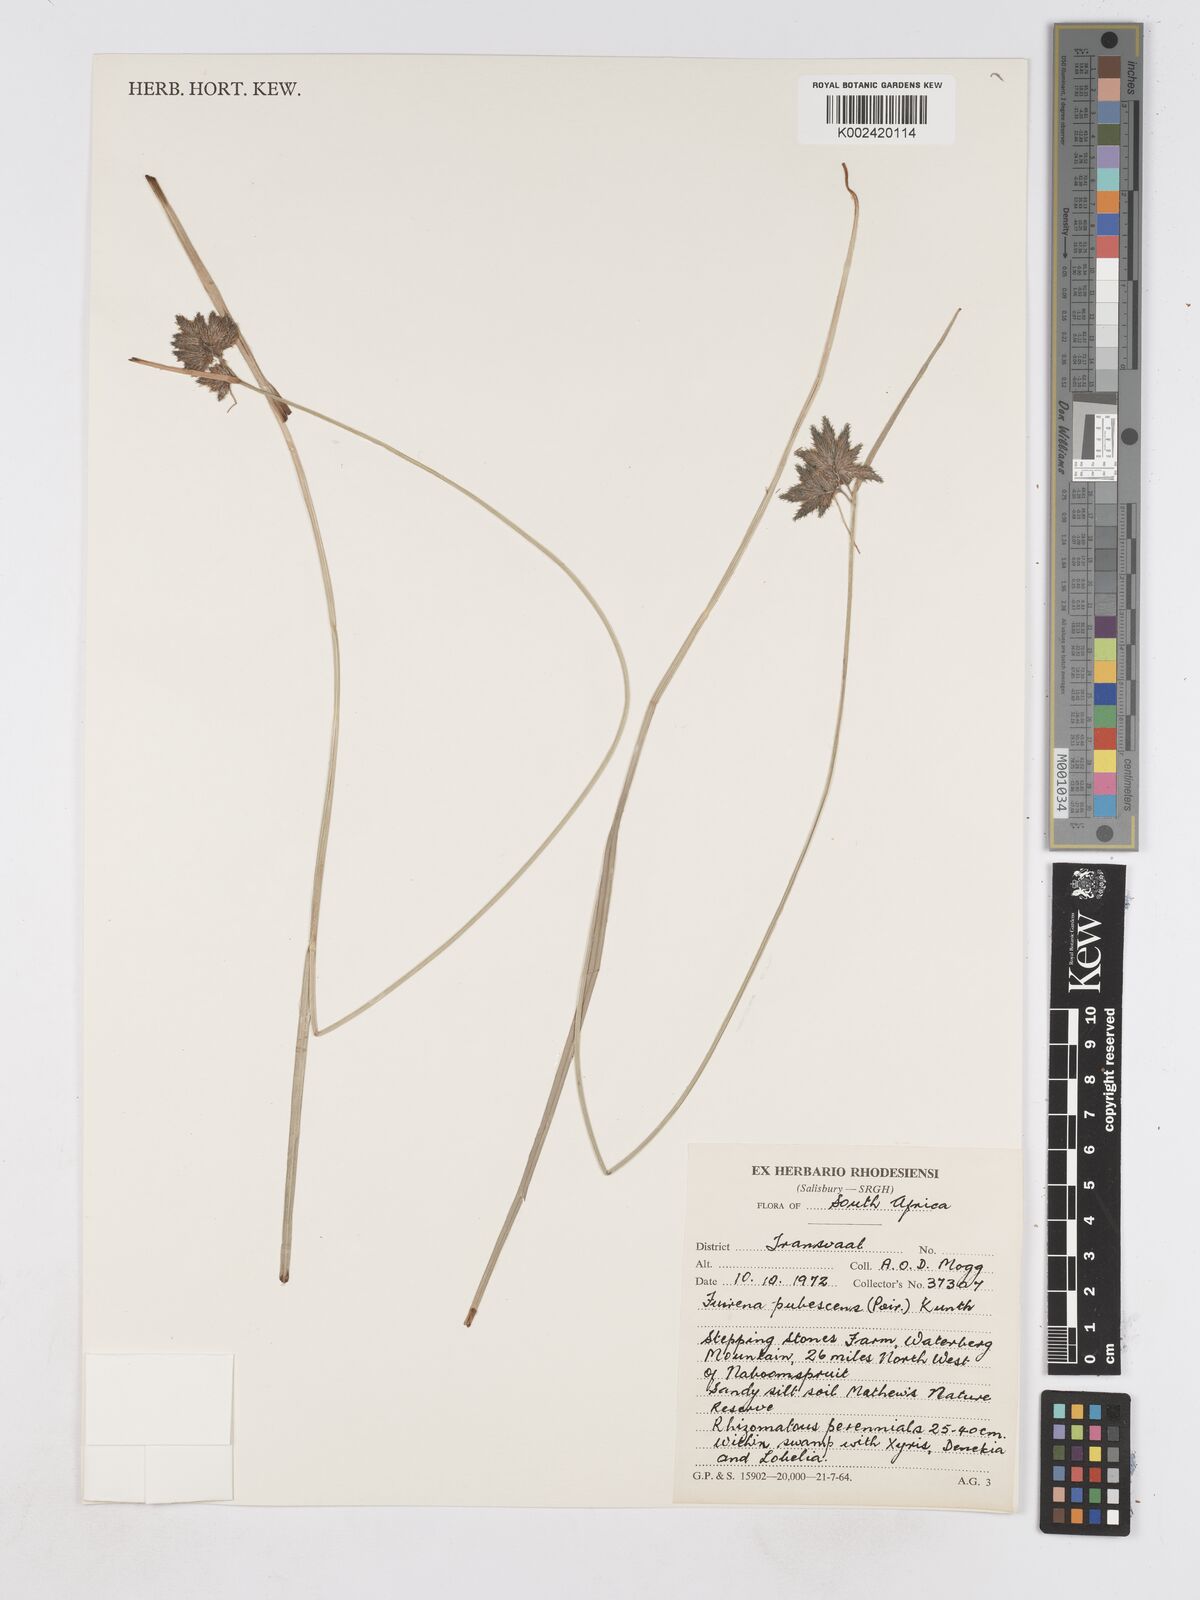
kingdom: Plantae
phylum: Tracheophyta
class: Liliopsida
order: Poales
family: Cyperaceae
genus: Fuirena
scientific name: Fuirena pubescens
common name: Hairy sedge
